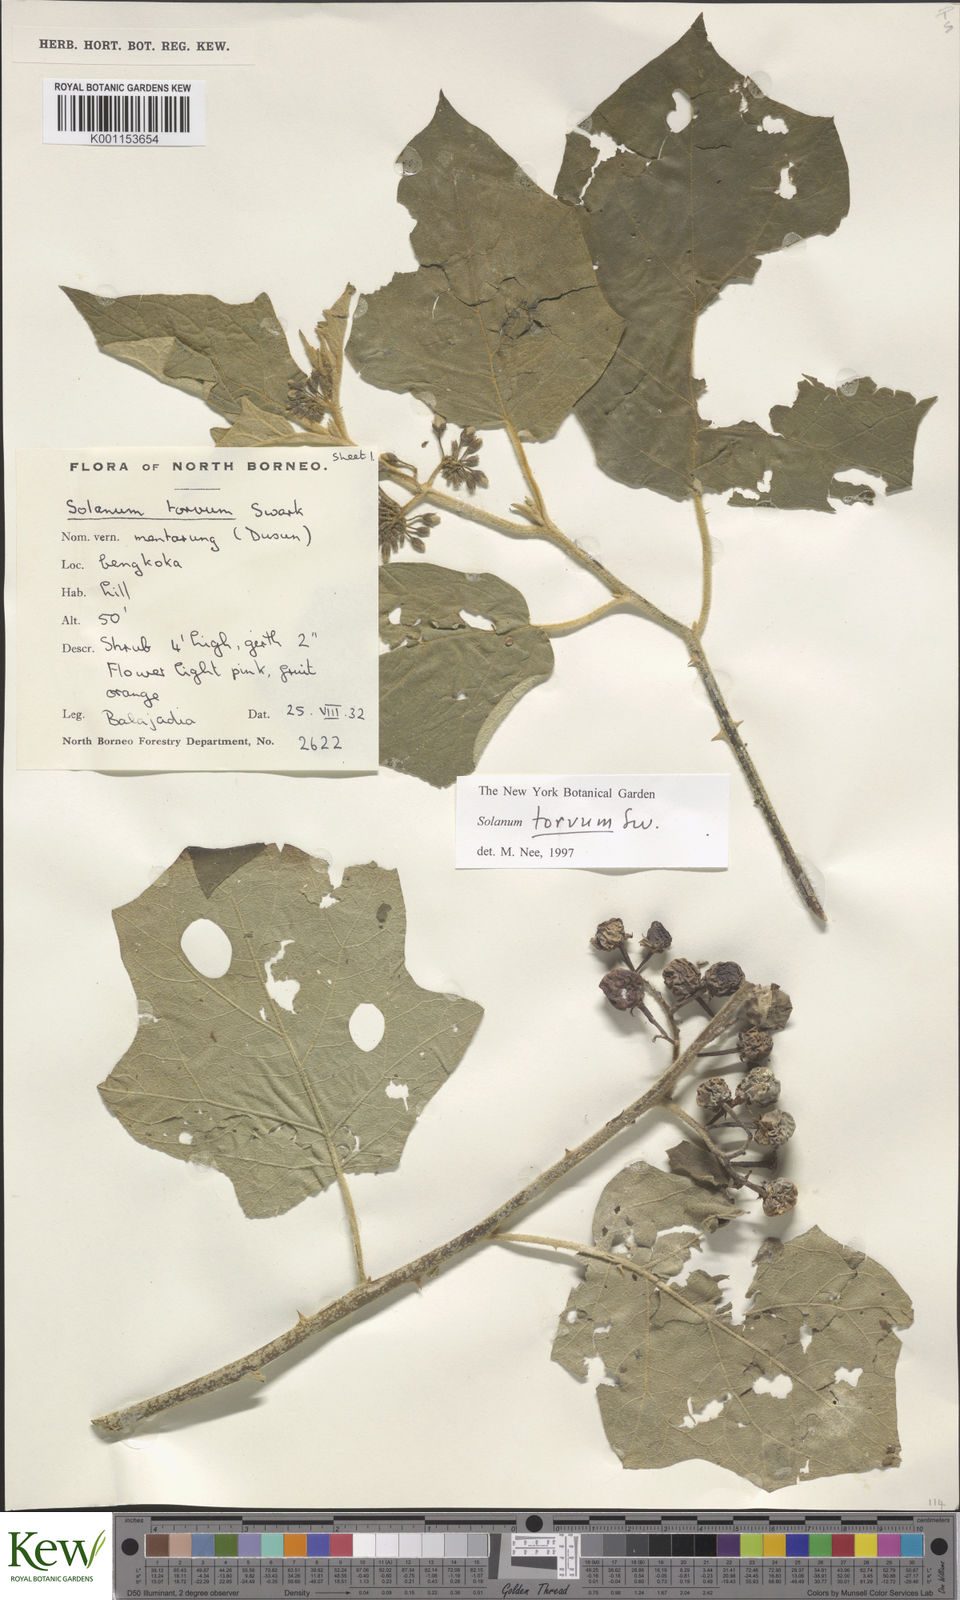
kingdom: Plantae
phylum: Tracheophyta
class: Magnoliopsida
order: Solanales
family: Solanaceae
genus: Solanum
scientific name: Solanum torvum
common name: Turkey berry
